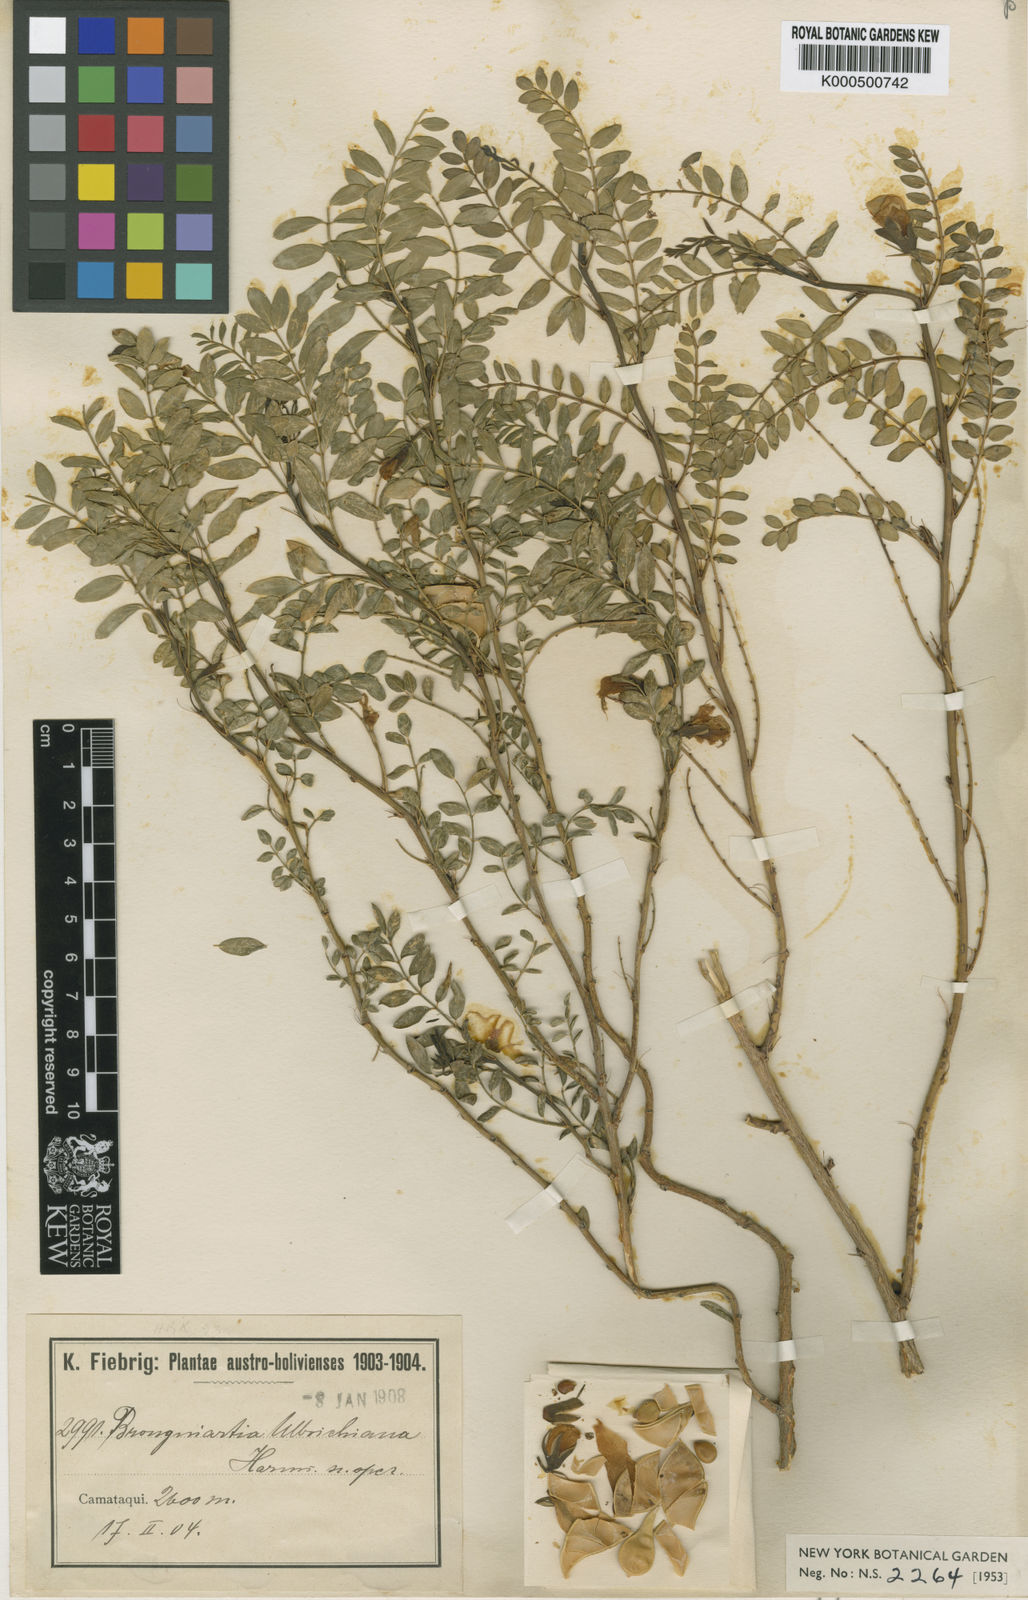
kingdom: Plantae
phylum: Tracheophyta
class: Magnoliopsida
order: Fabales
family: Fabaceae
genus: Brongniartia
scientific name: Brongniartia ulbrichiana
